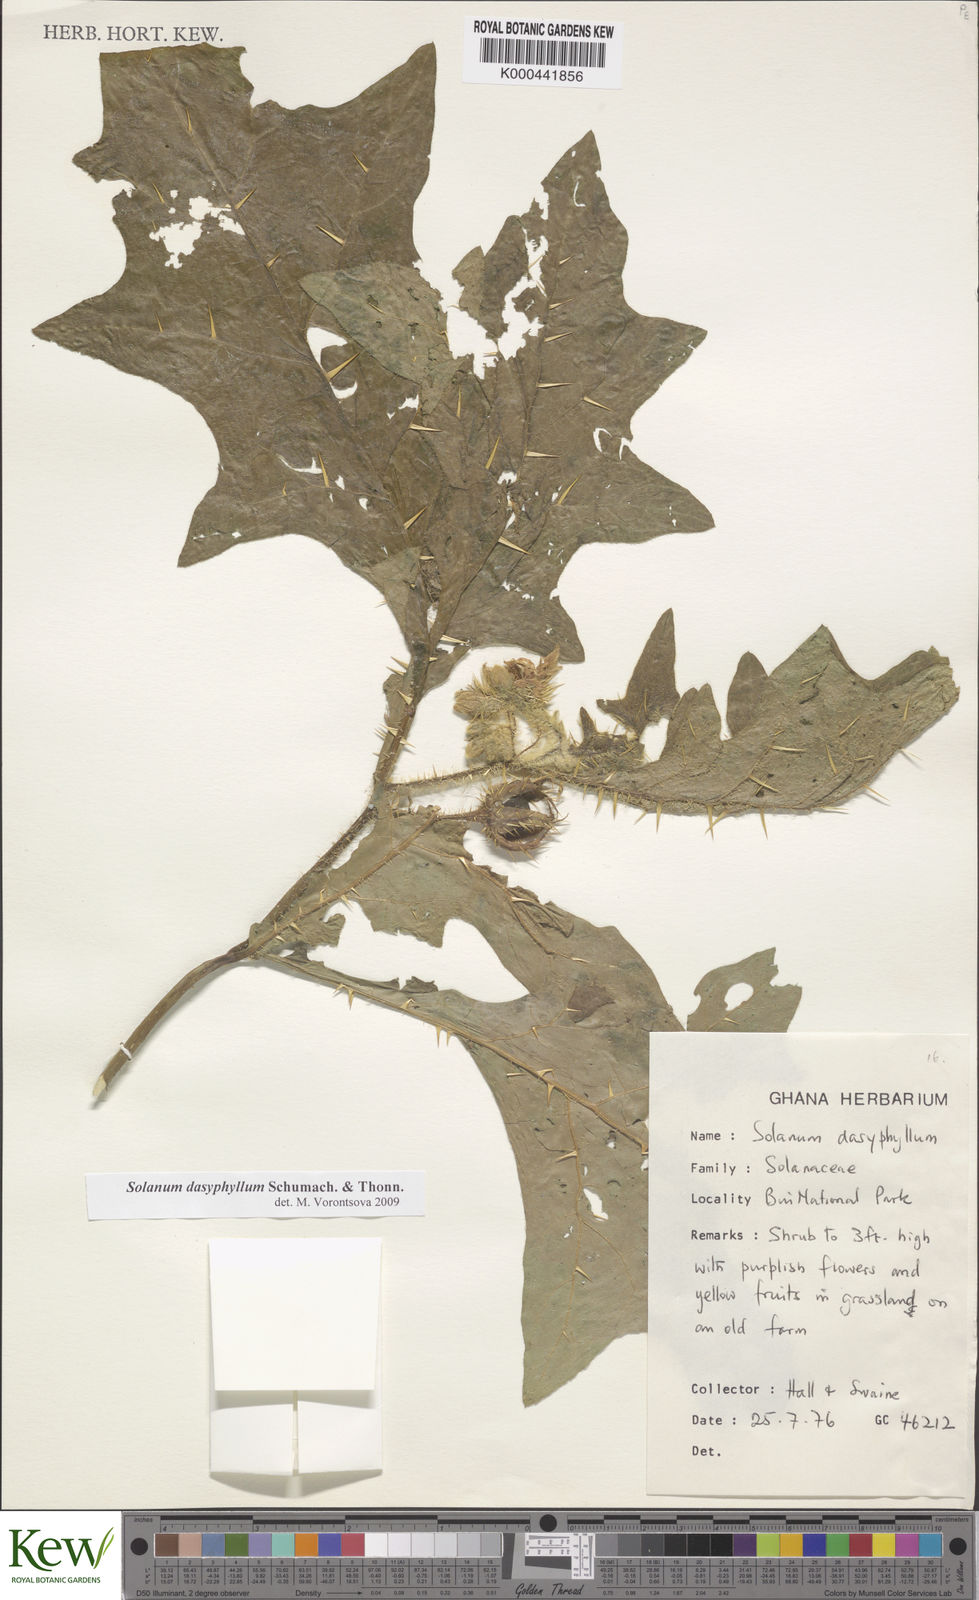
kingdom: Plantae
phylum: Tracheophyta
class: Magnoliopsida
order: Solanales
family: Solanaceae
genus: Solanum
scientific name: Solanum dasyphyllum
